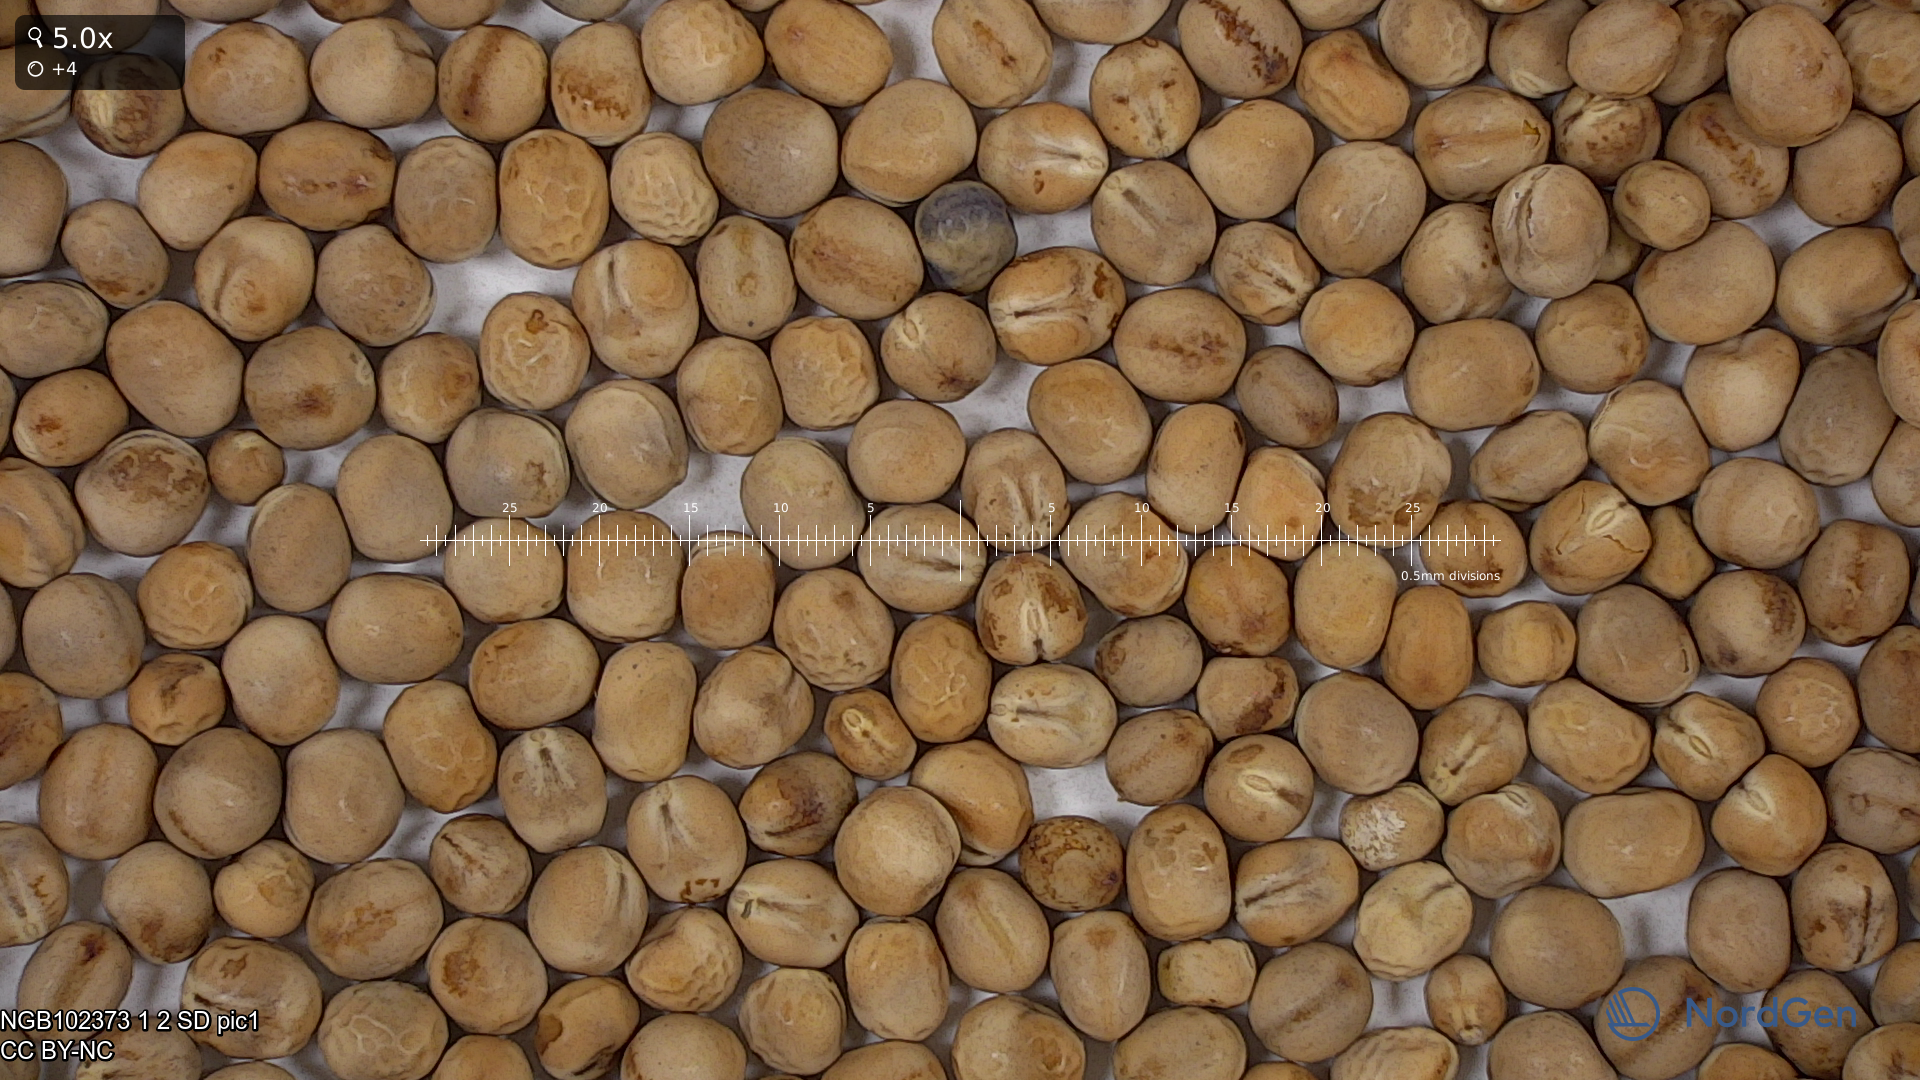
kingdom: Plantae
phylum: Tracheophyta
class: Magnoliopsida
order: Fabales
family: Fabaceae
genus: Lathyrus
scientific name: Lathyrus oleraceus
